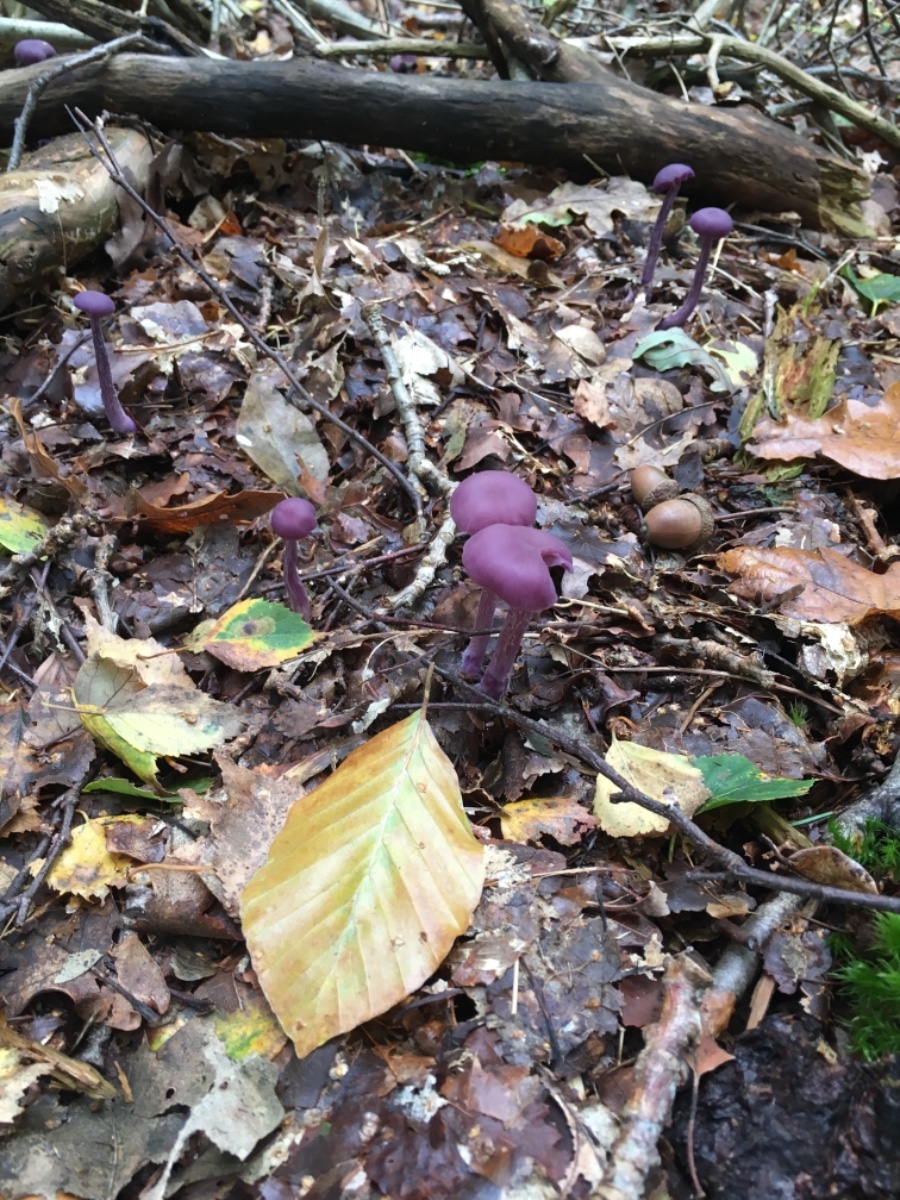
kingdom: Fungi
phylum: Basidiomycota
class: Agaricomycetes
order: Agaricales
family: Hydnangiaceae
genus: Laccaria
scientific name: Laccaria amethystina
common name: violet ametysthat
